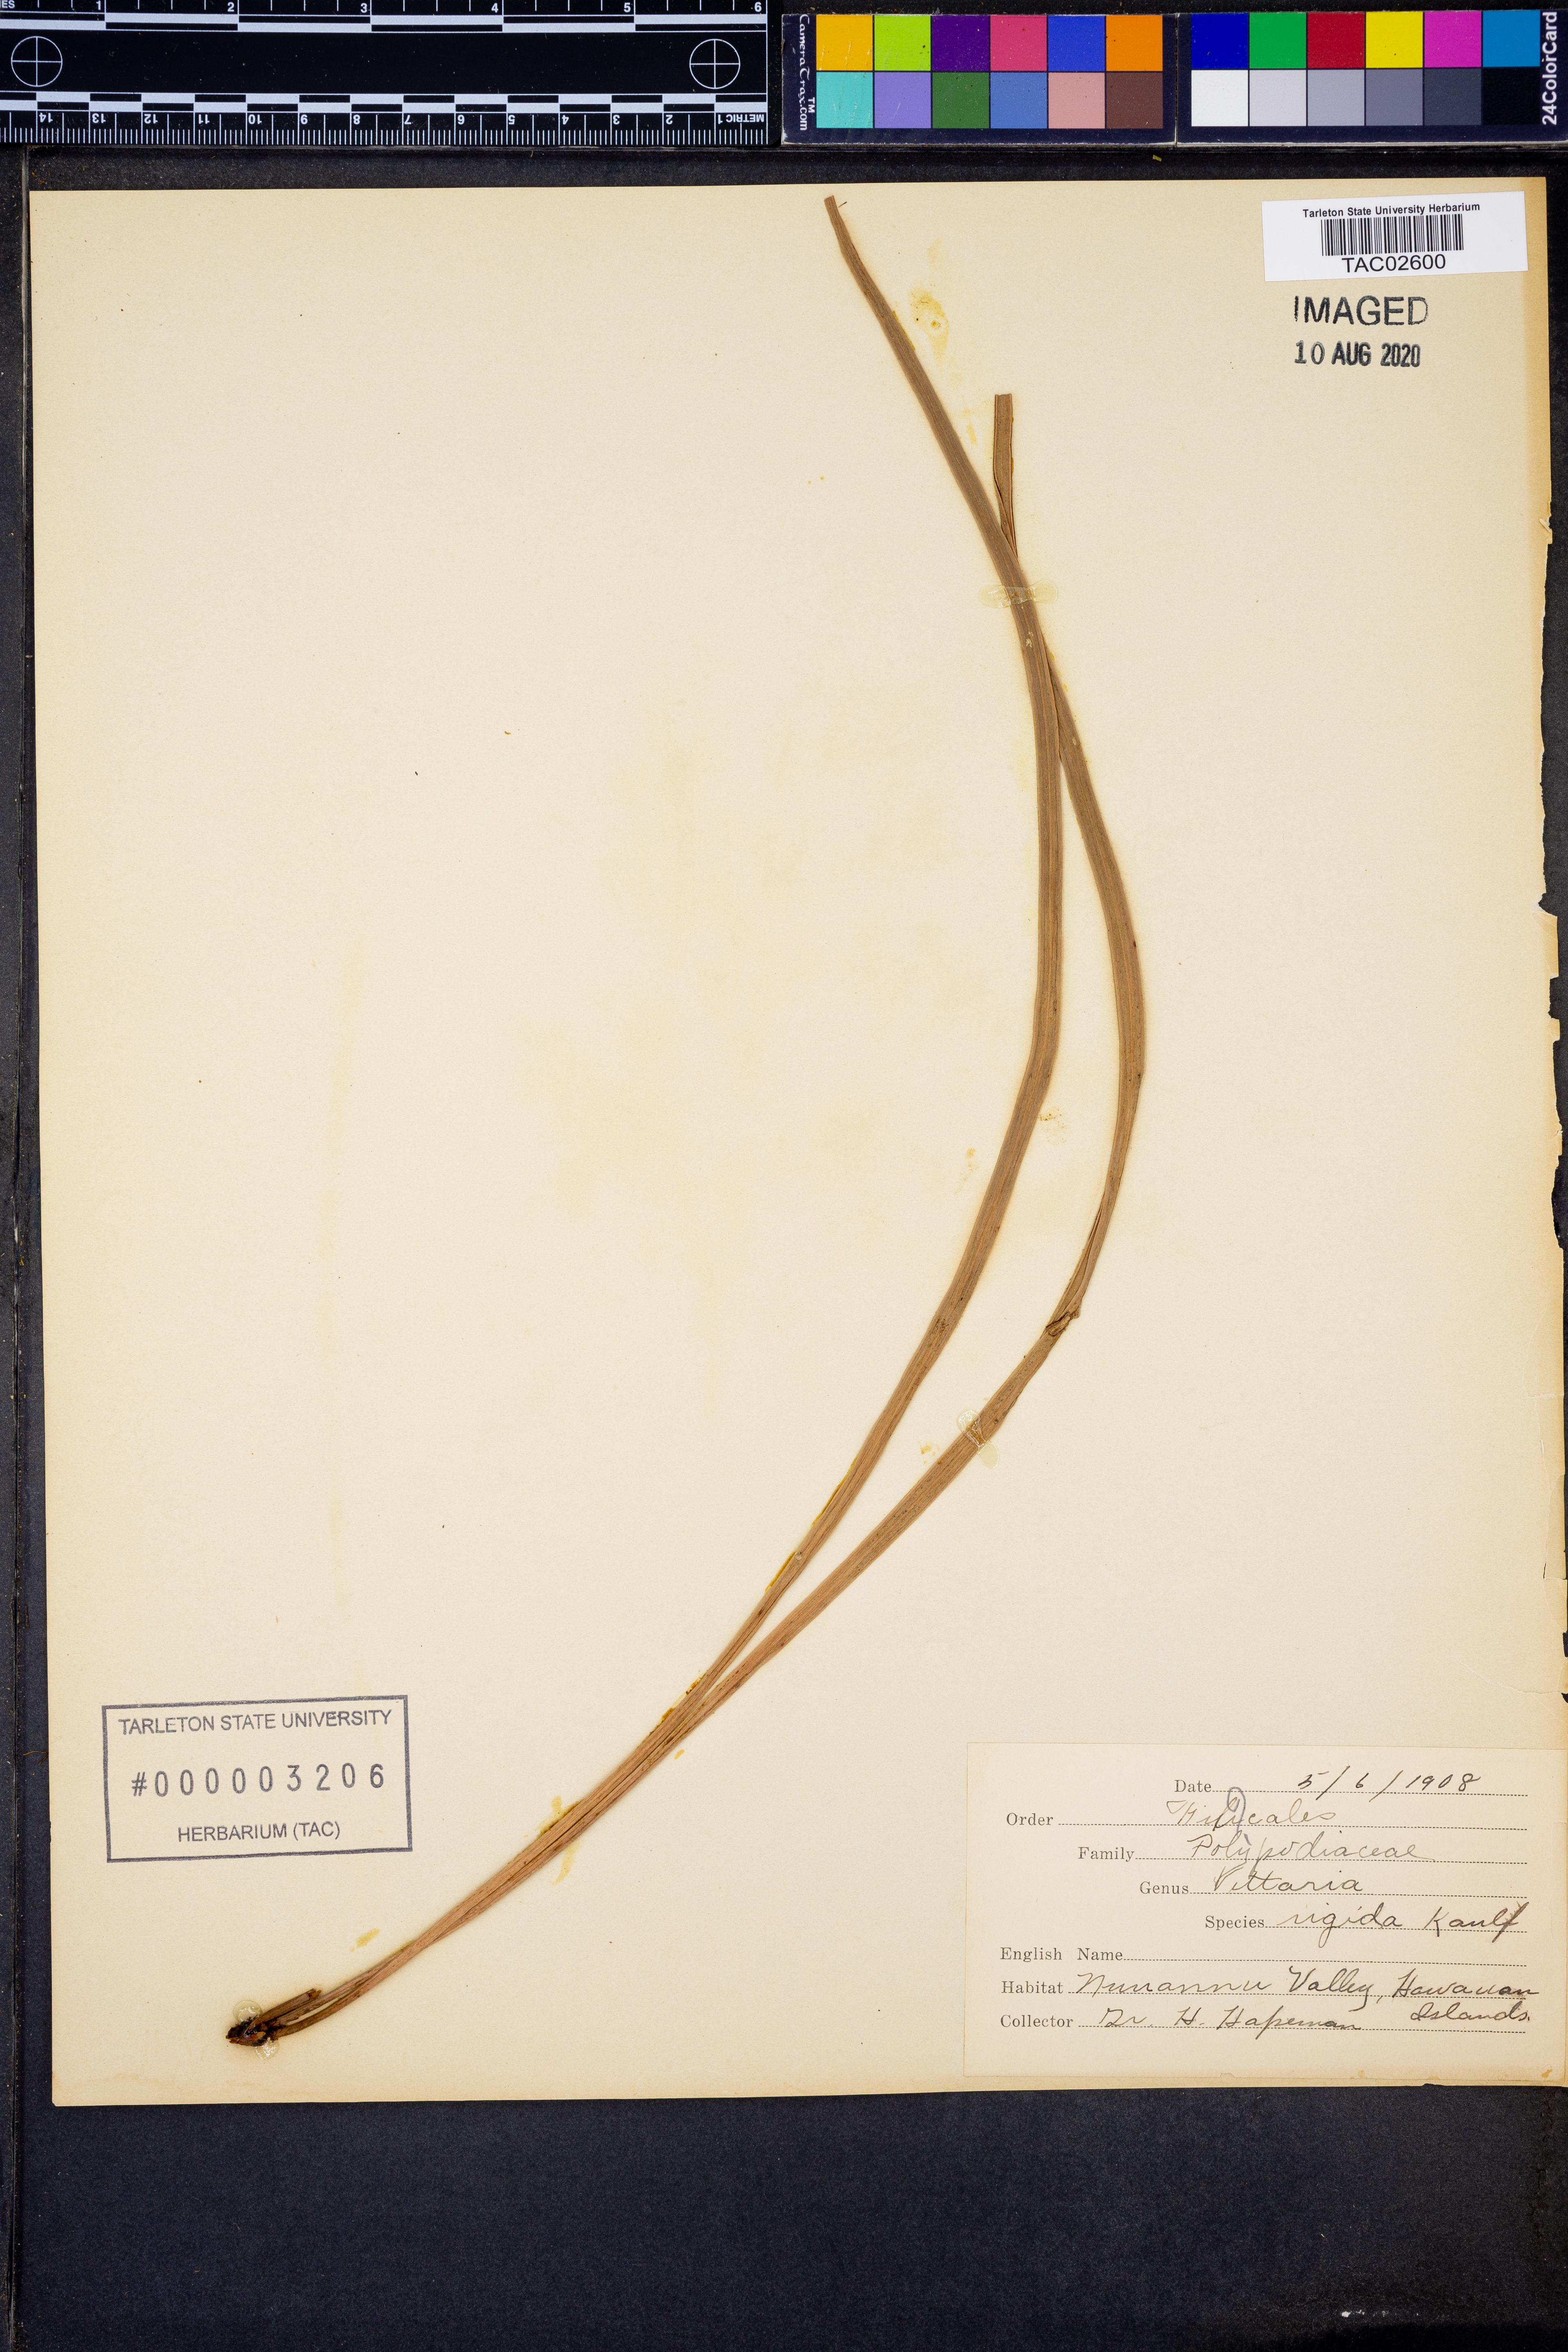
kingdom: Plantae
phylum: Tracheophyta
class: Polypodiopsida
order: Polypodiales
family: Pteridaceae
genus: Haplopteris
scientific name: Haplopteris elongata
